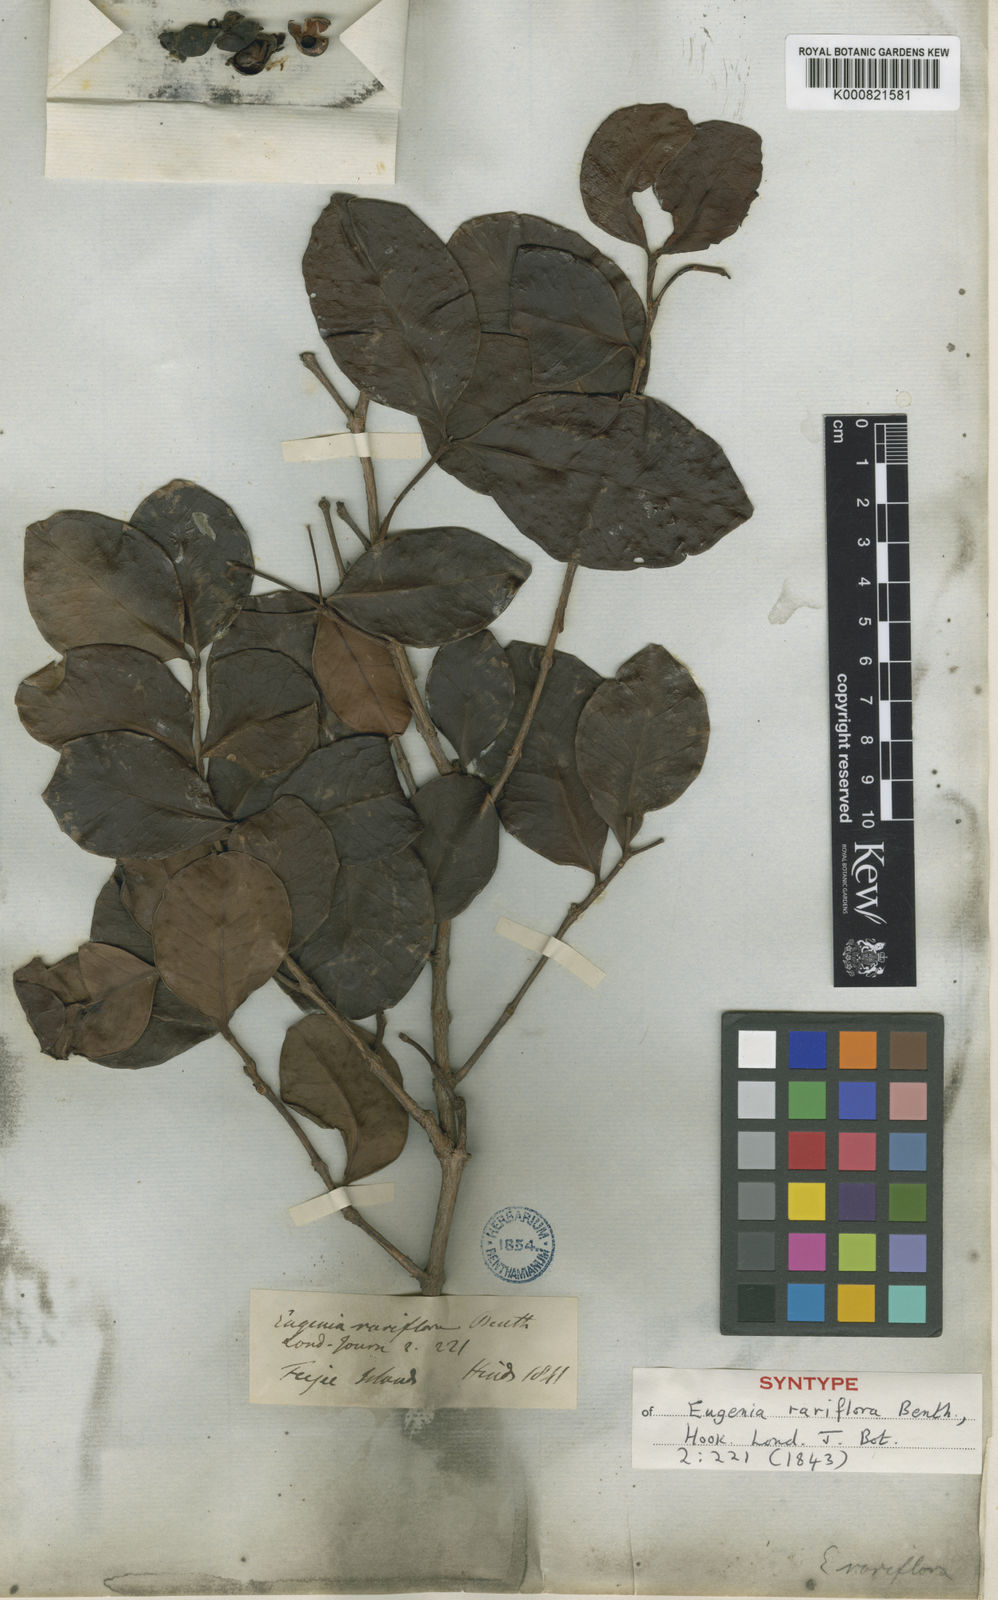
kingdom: Plantae
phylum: Tracheophyta
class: Magnoliopsida
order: Myrtales
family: Myrtaceae
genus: Eugenia
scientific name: Eugenia reinwardtiana
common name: Cedar bay-cherry
